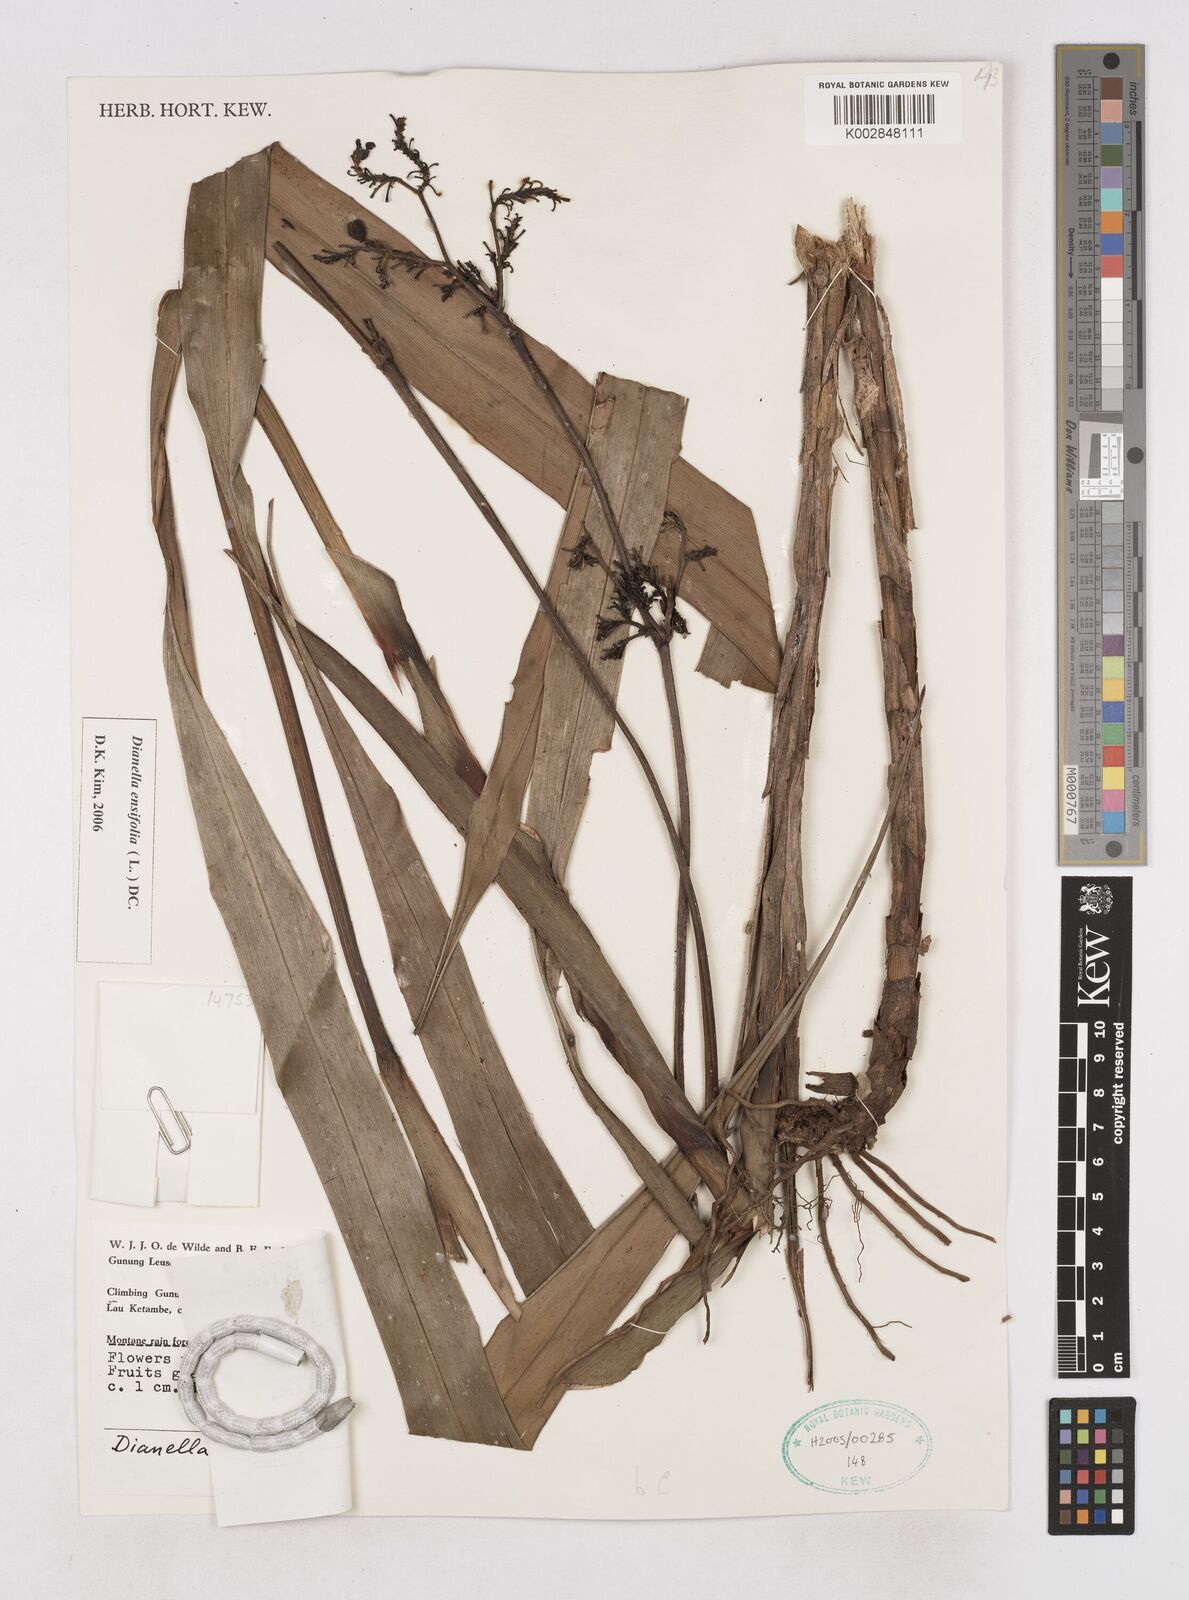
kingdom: Plantae
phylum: Tracheophyta
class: Liliopsida
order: Asparagales
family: Asphodelaceae
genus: Dianella
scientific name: Dianella ensifolia
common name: New zealand lilyplant
